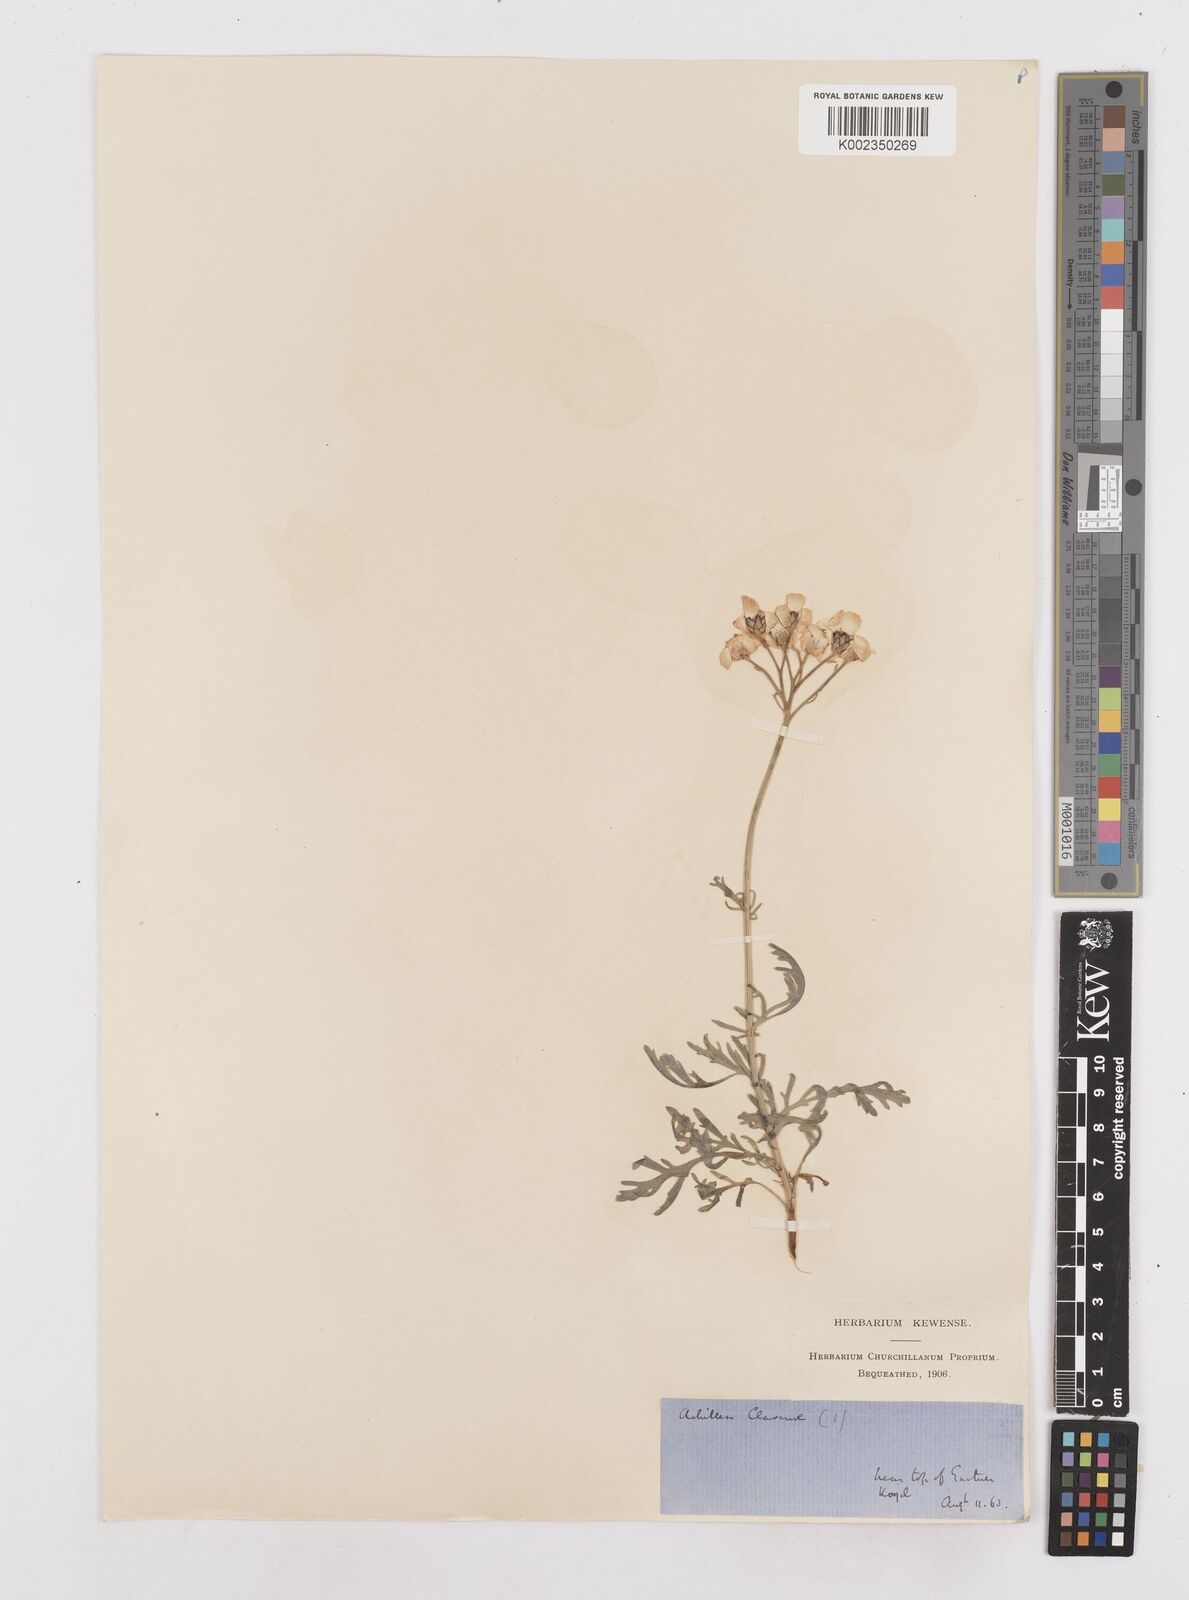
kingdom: Plantae
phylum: Tracheophyta
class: Magnoliopsida
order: Asterales
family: Asteraceae
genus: Achillea
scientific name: Achillea clavennae
